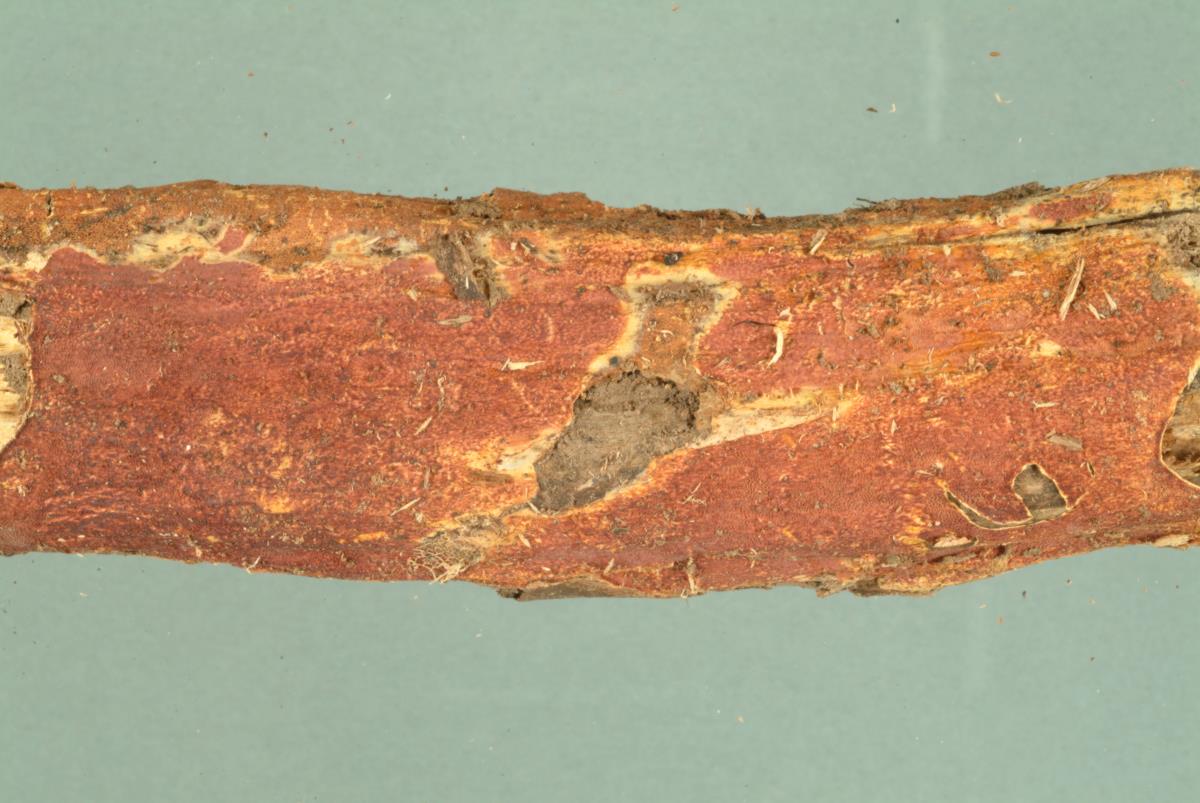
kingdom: Fungi
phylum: Basidiomycota
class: Agaricomycetes
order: Polyporales
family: Irpicaceae
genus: Byssomerulius
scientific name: Byssomerulius psittacinus
